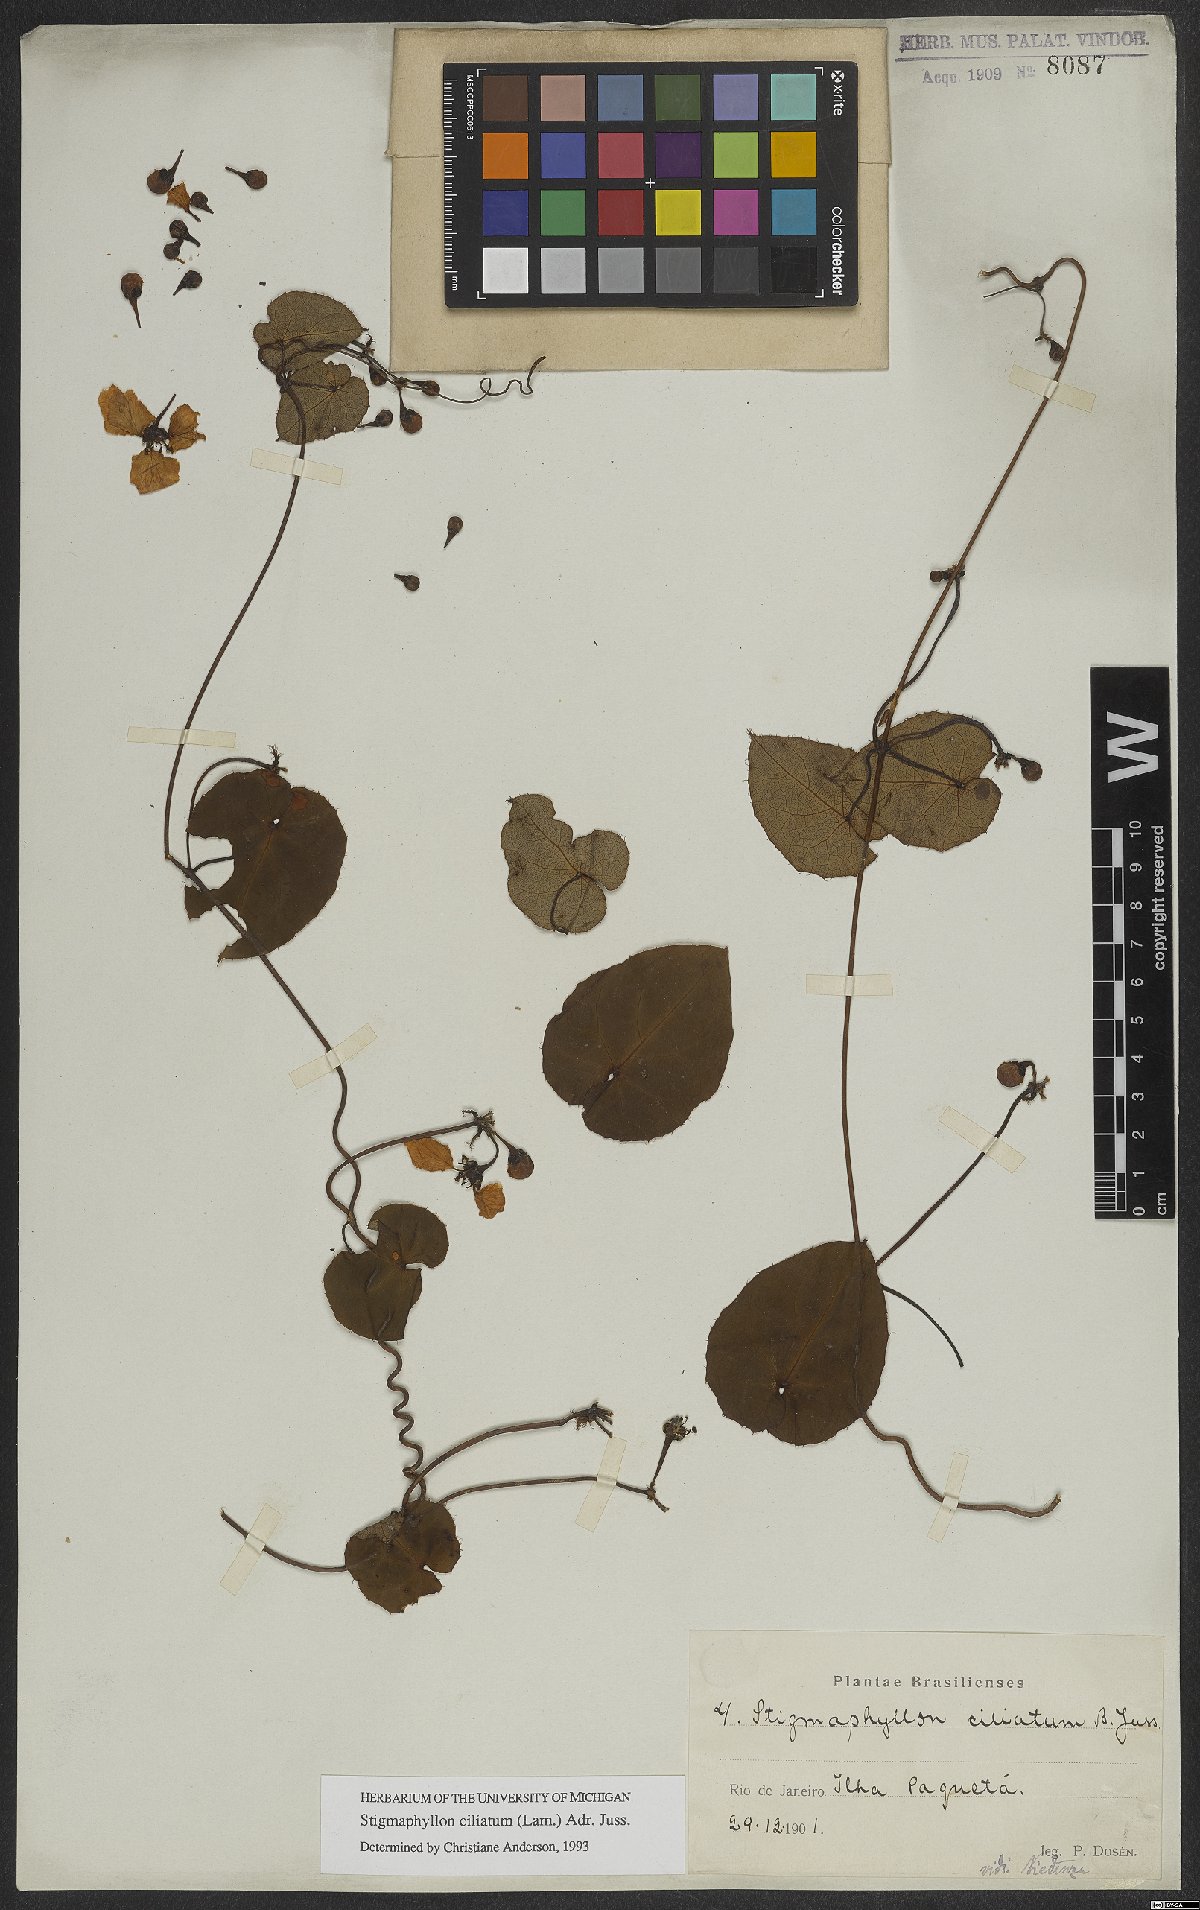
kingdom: Plantae
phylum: Tracheophyta
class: Magnoliopsida
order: Malpighiales
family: Malpighiaceae
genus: Stigmaphyllon
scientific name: Stigmaphyllon ciliatum
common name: Amazonvine
